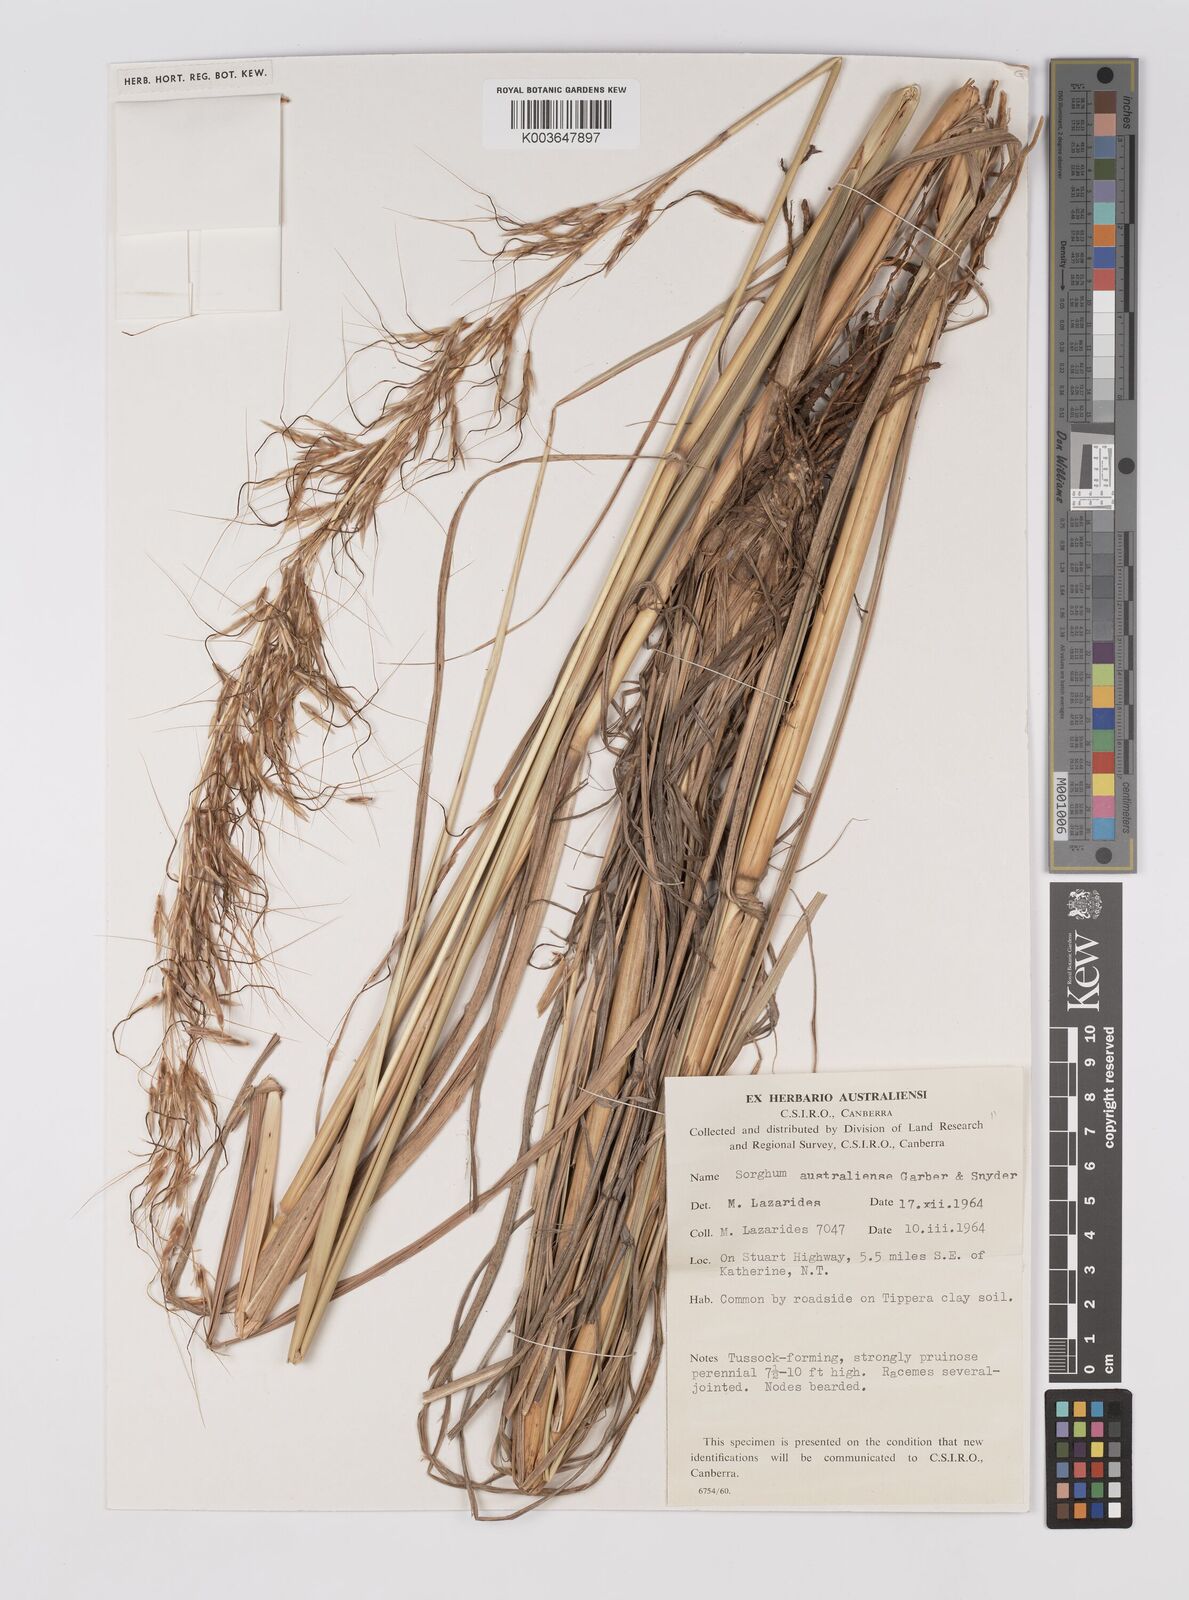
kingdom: Plantae
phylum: Tracheophyta
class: Liliopsida
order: Poales
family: Poaceae
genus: Sarga
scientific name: Sarga timorensis
